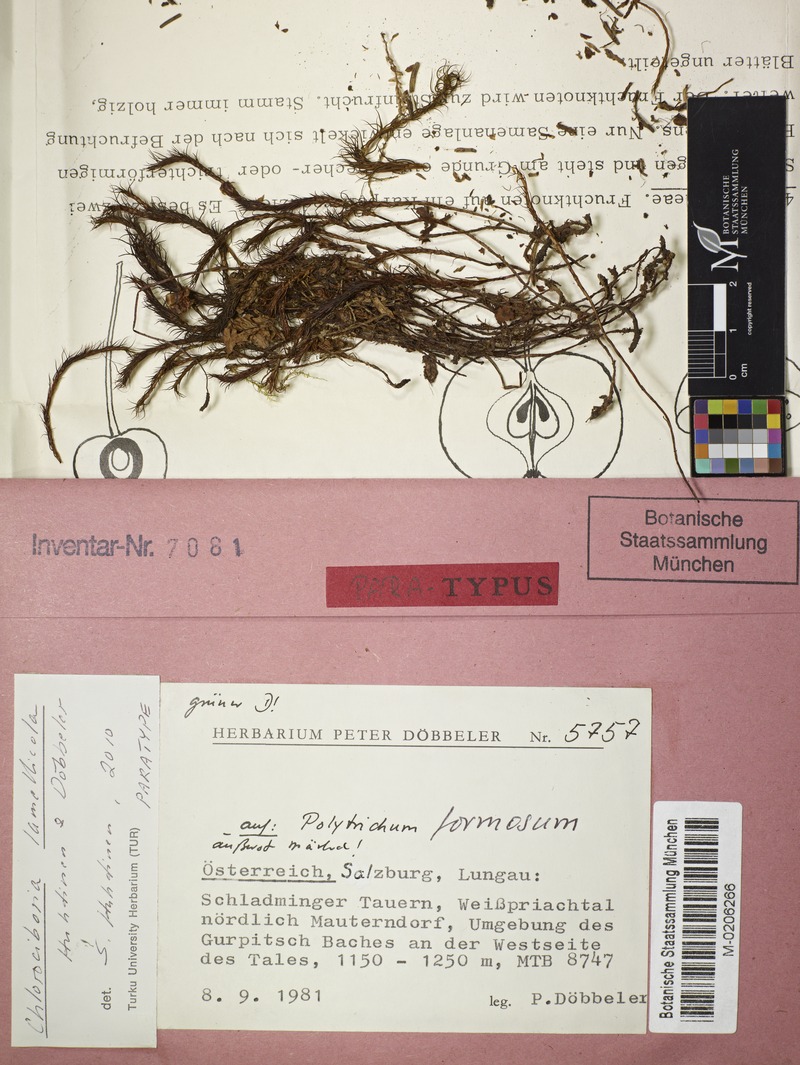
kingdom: Fungi
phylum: Ascomycota
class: Leotiomycetes
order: Helotiales
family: Chlorociboriaceae
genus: Chlorociboria
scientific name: Chlorociboria lamellicola
